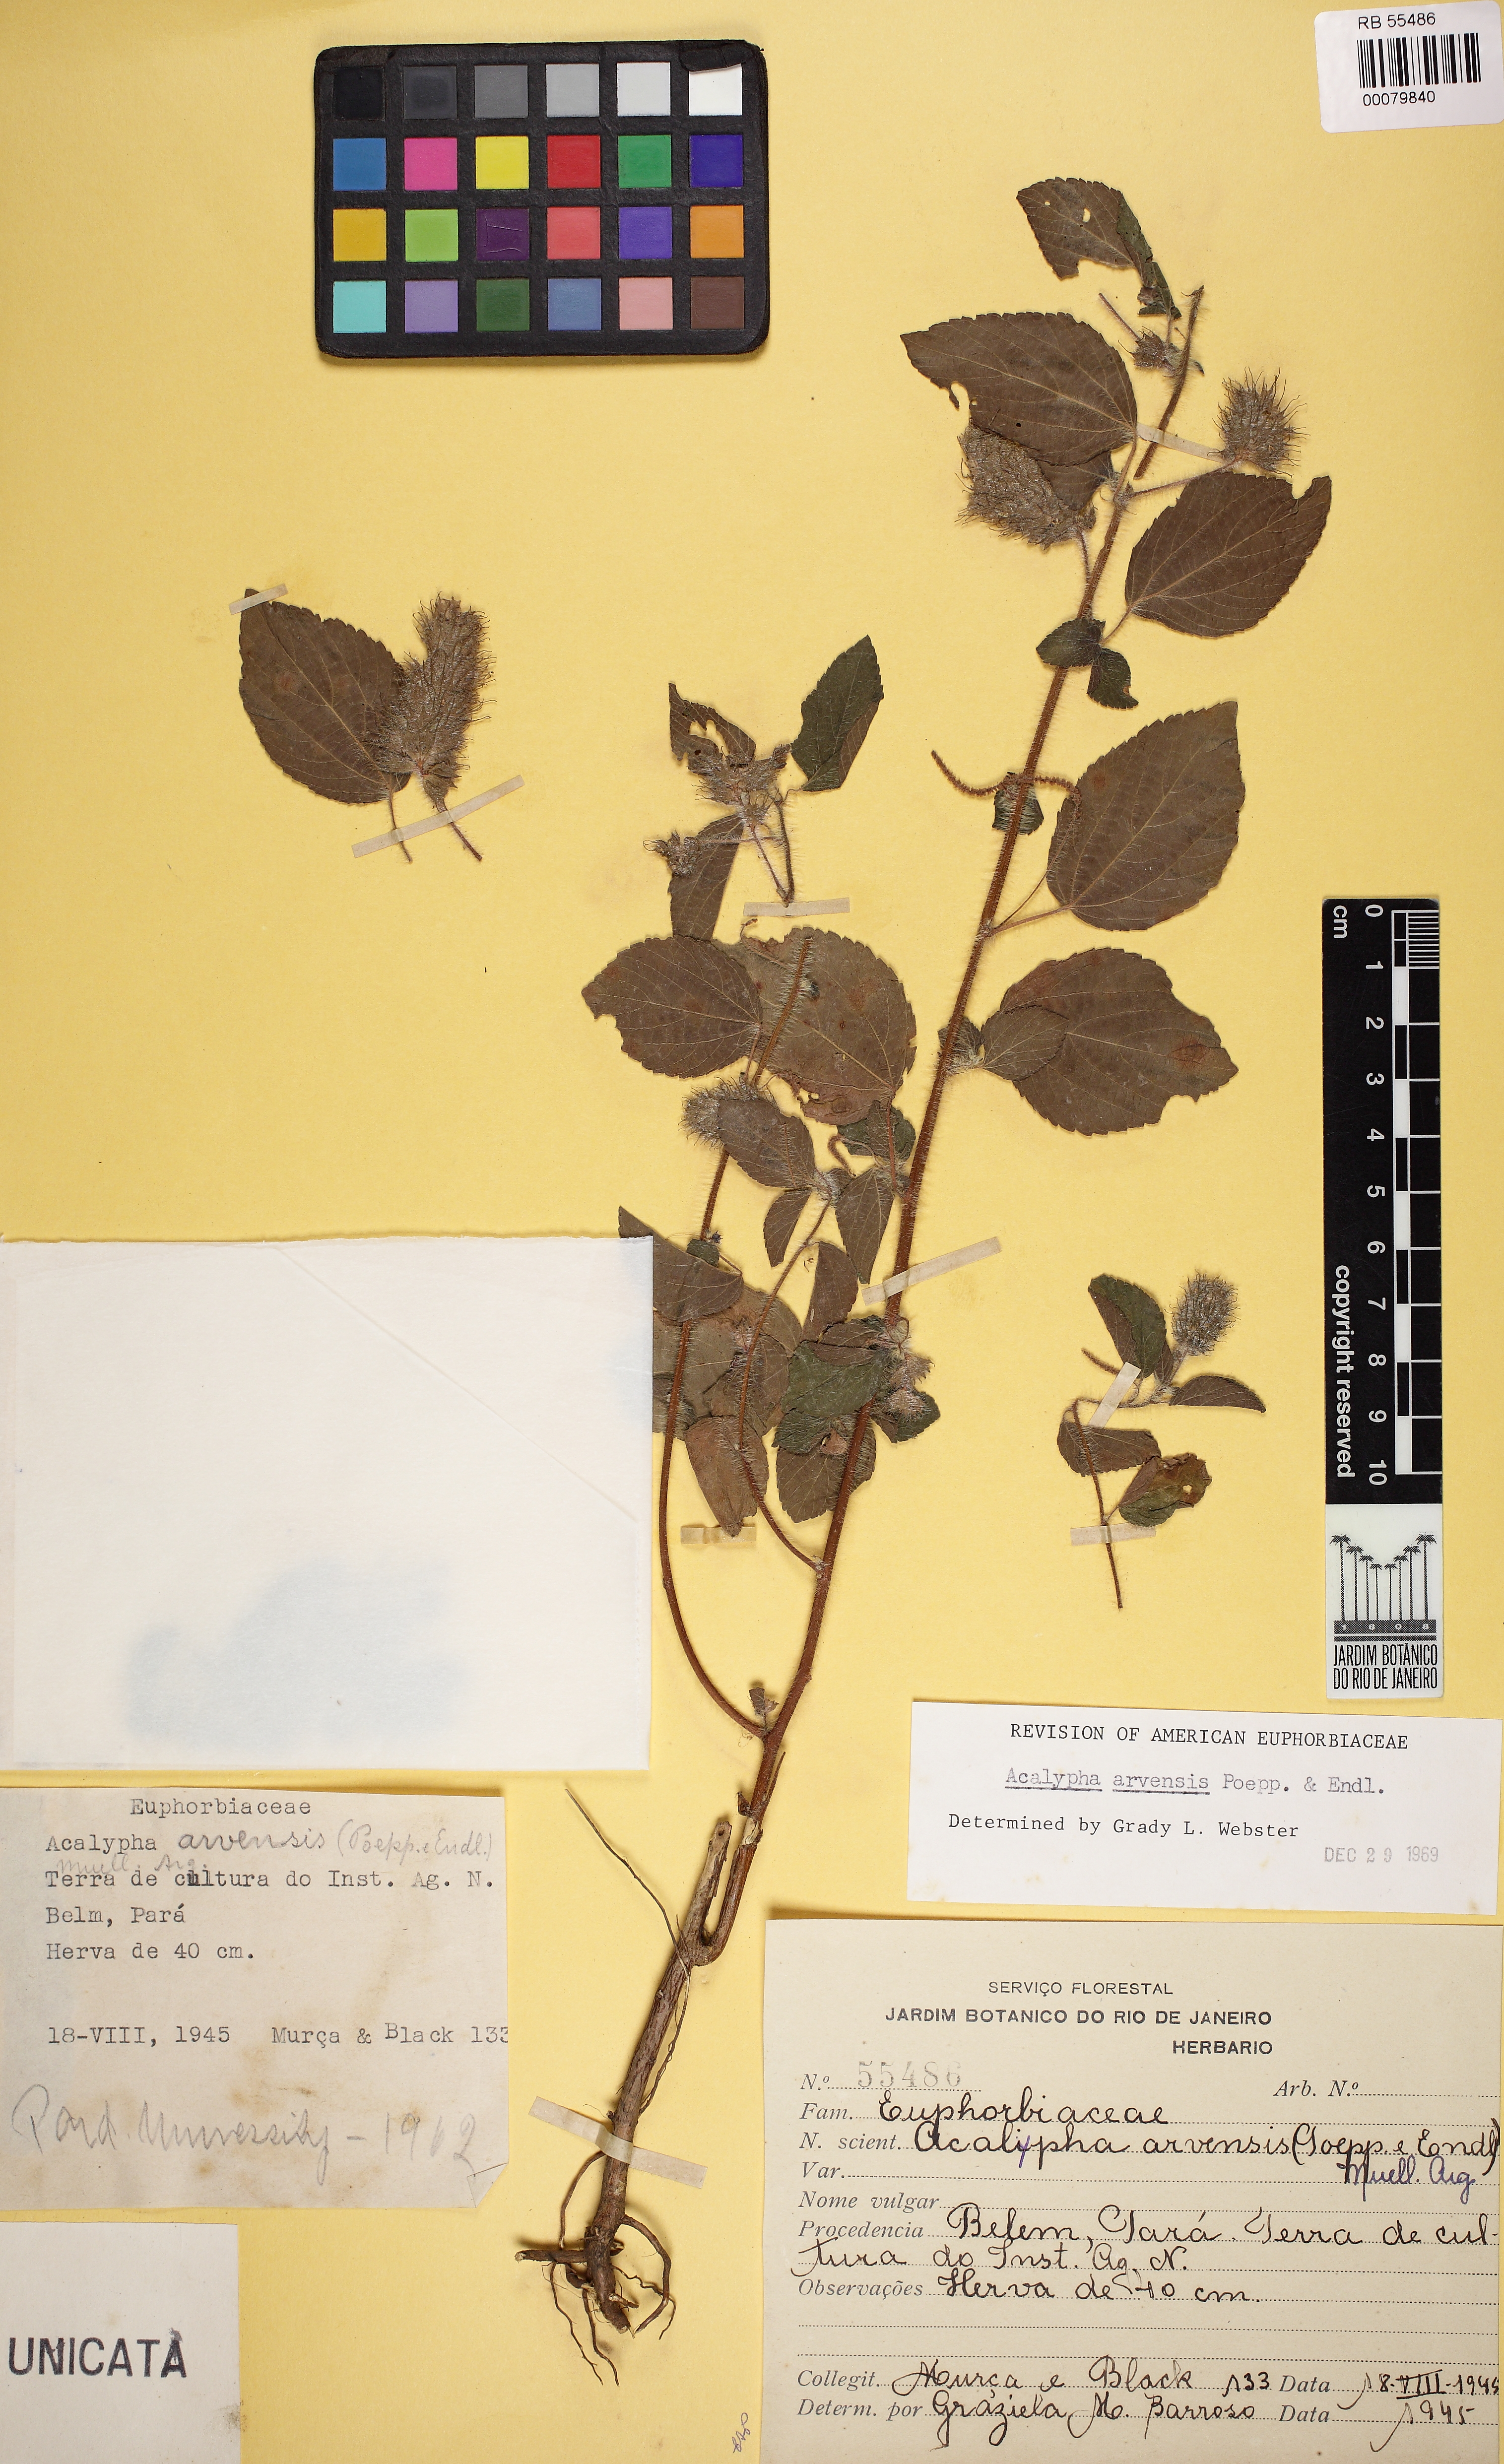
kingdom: Plantae
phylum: Tracheophyta
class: Magnoliopsida
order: Malpighiales
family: Euphorbiaceae
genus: Acalypha
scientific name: Acalypha alopecuroidea
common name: Foxtail copperleaf
